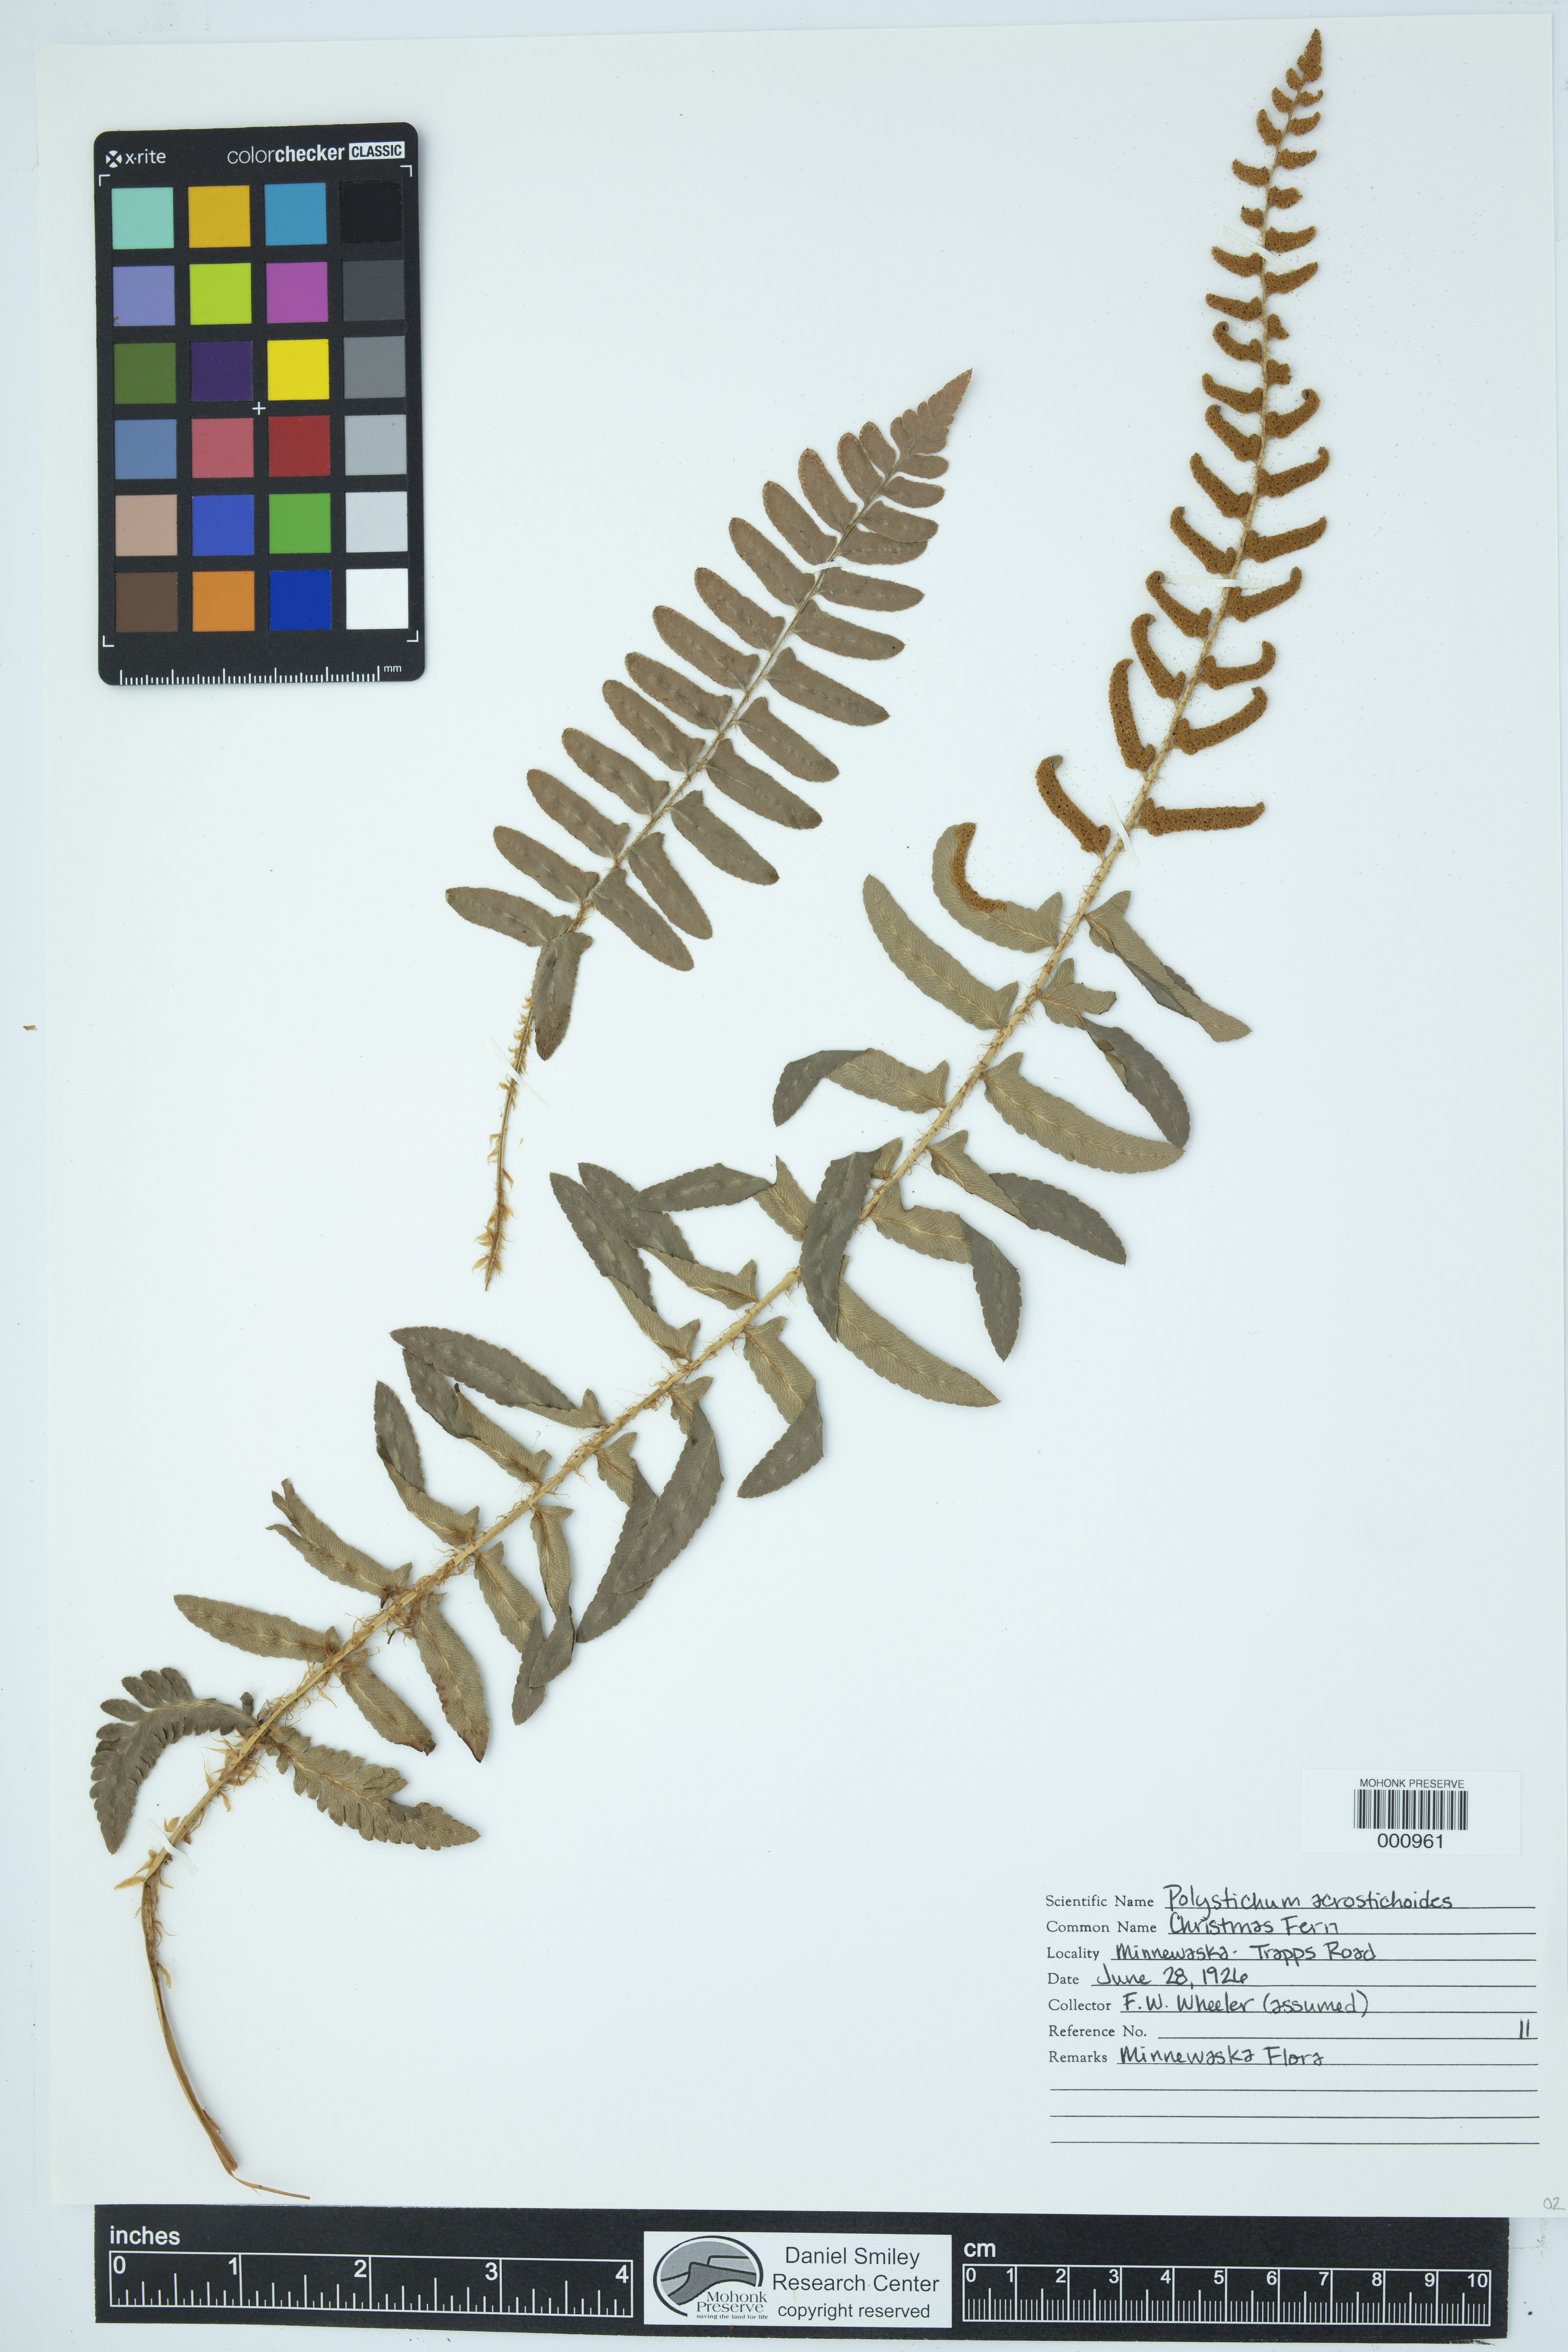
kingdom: Plantae
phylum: Tracheophyta
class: Polypodiopsida
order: Polypodiales
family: Dryopteridaceae
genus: Polystichum
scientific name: Polystichum acrostichoides
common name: Christmas fern
